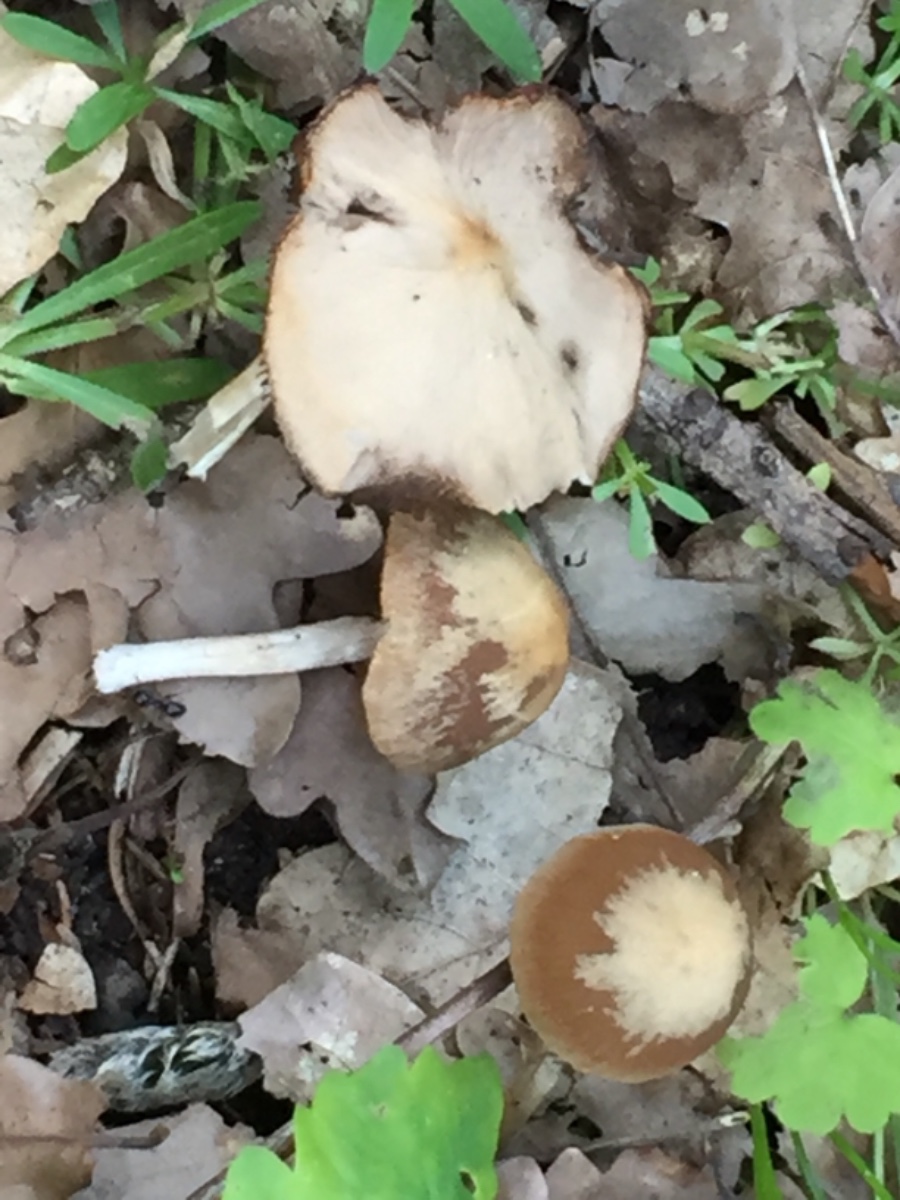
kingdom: Fungi
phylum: Basidiomycota
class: Agaricomycetes
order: Agaricales
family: Psathyrellaceae
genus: Psathyrella
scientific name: Psathyrella
